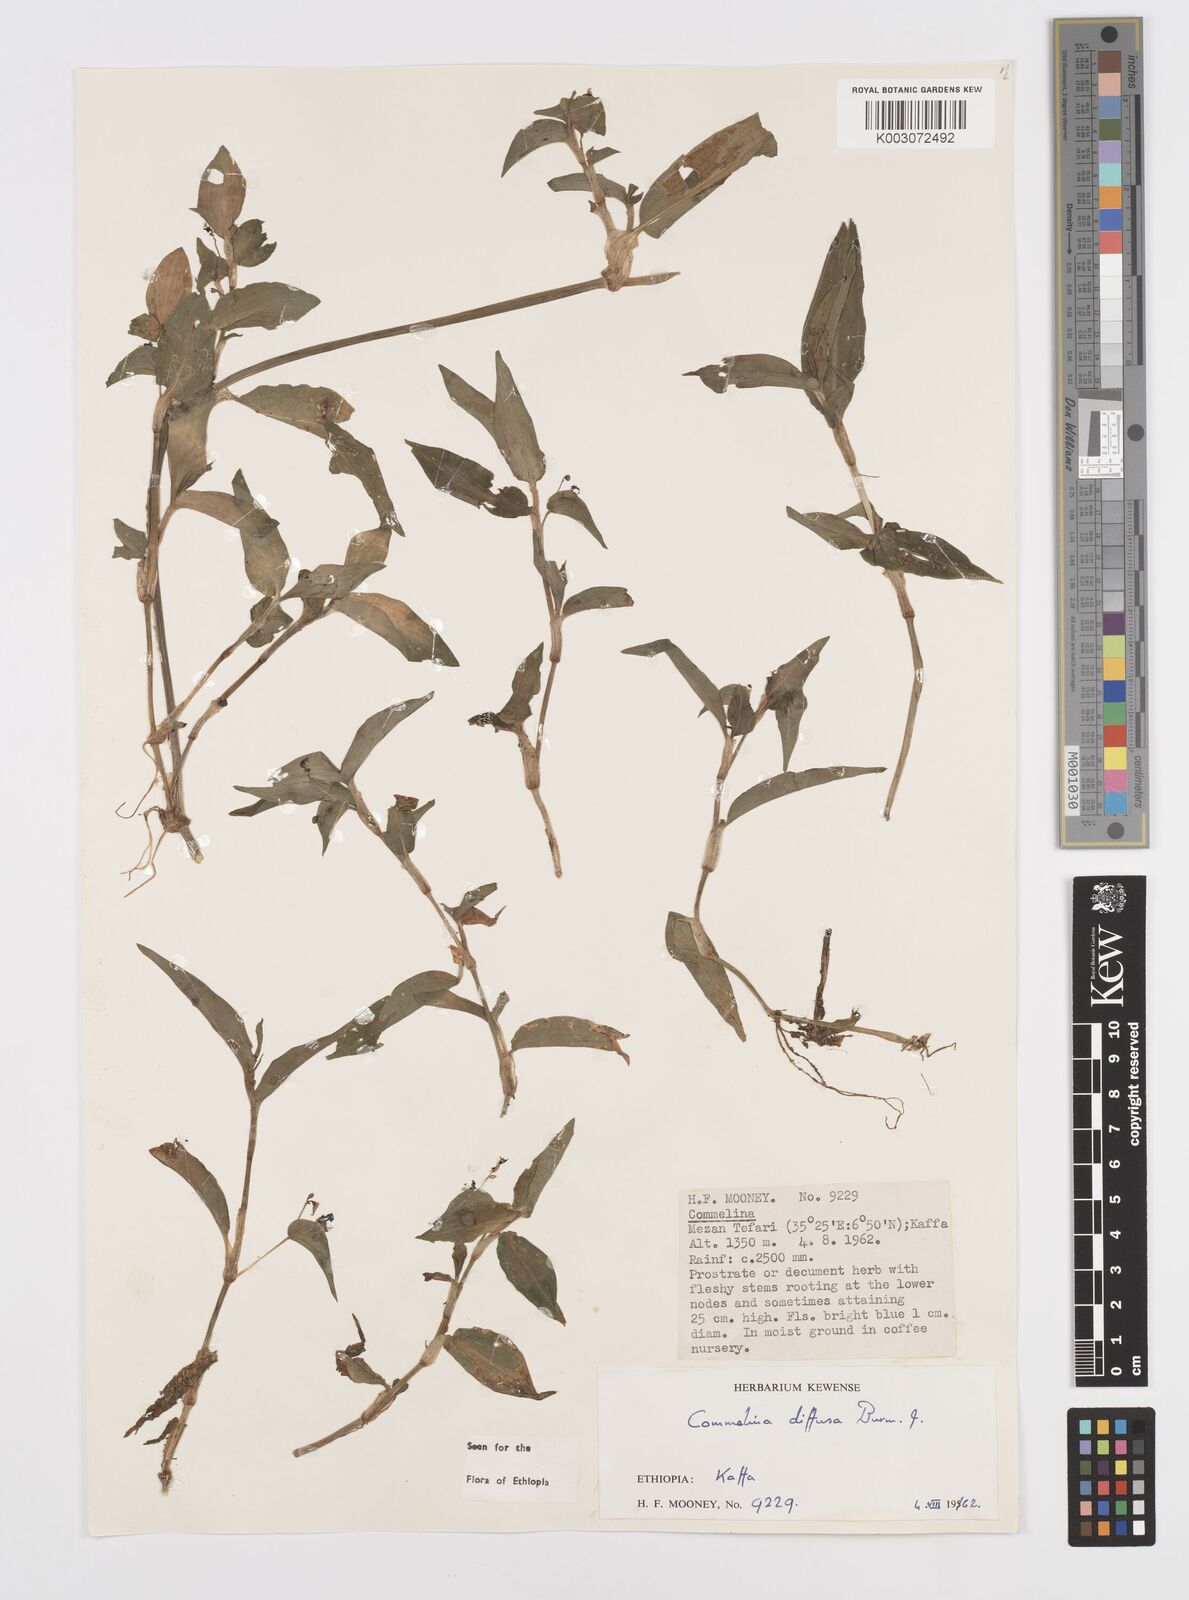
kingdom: Plantae
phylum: Tracheophyta
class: Liliopsida
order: Commelinales
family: Commelinaceae
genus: Commelina
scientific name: Commelina diffusa
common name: Climbing dayflower
